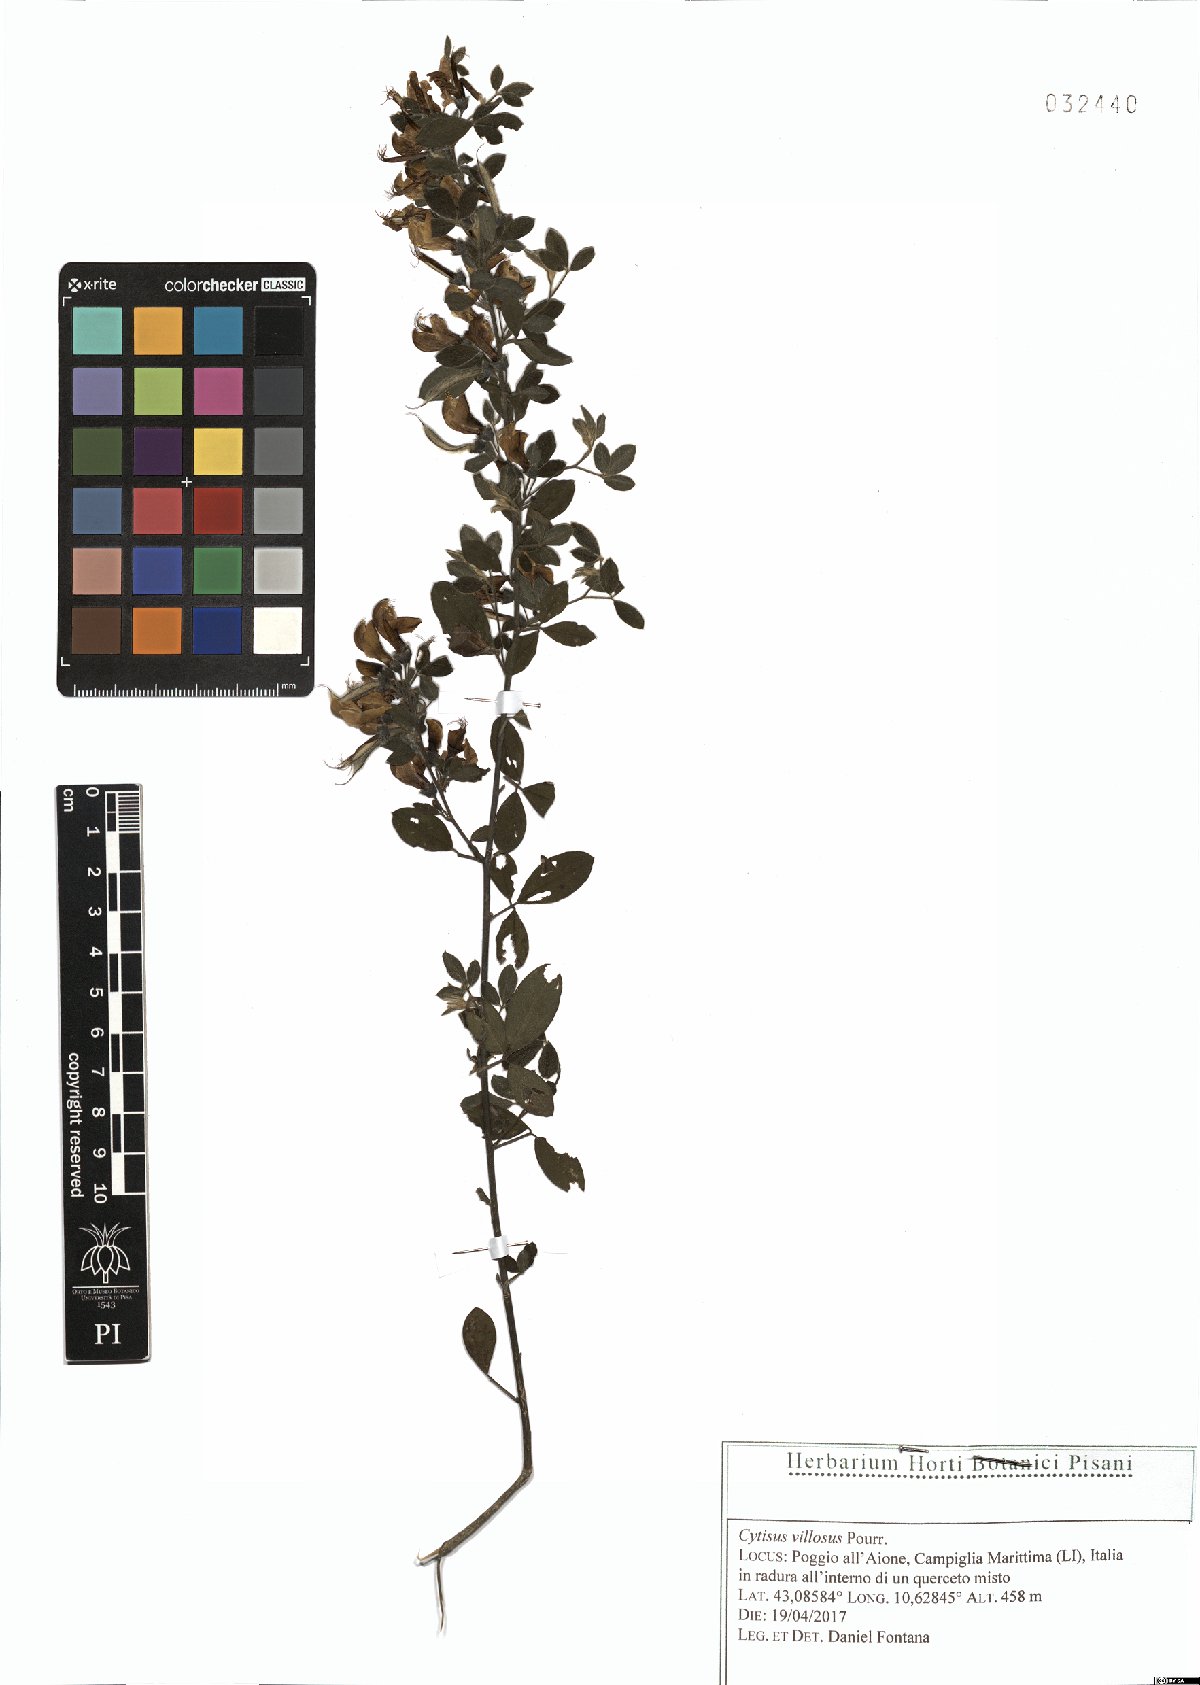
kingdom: Plantae
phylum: Tracheophyta
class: Magnoliopsida
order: Fabales
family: Fabaceae
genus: Cytisus
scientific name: Cytisus villosus
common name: Hairybroom
